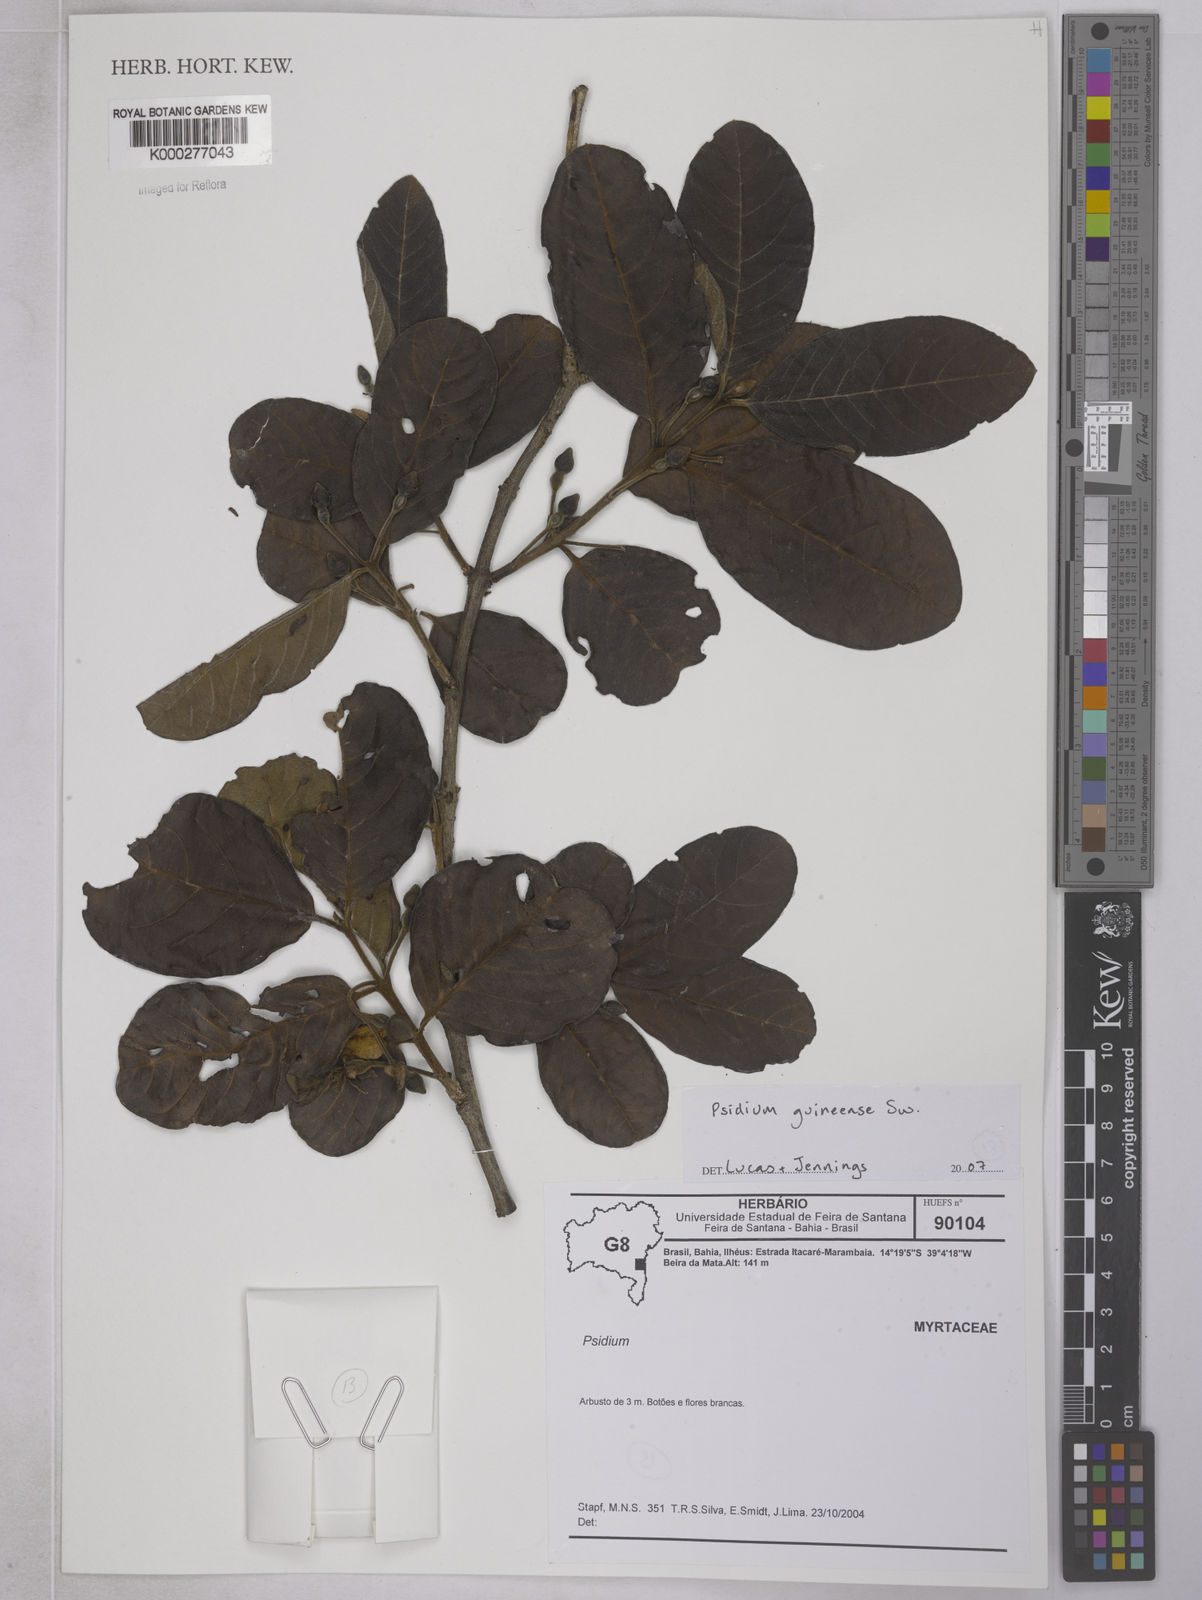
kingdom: Plantae
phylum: Tracheophyta
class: Magnoliopsida
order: Myrtales
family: Myrtaceae
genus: Psidium
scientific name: Psidium guineense
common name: Brazilian guava
